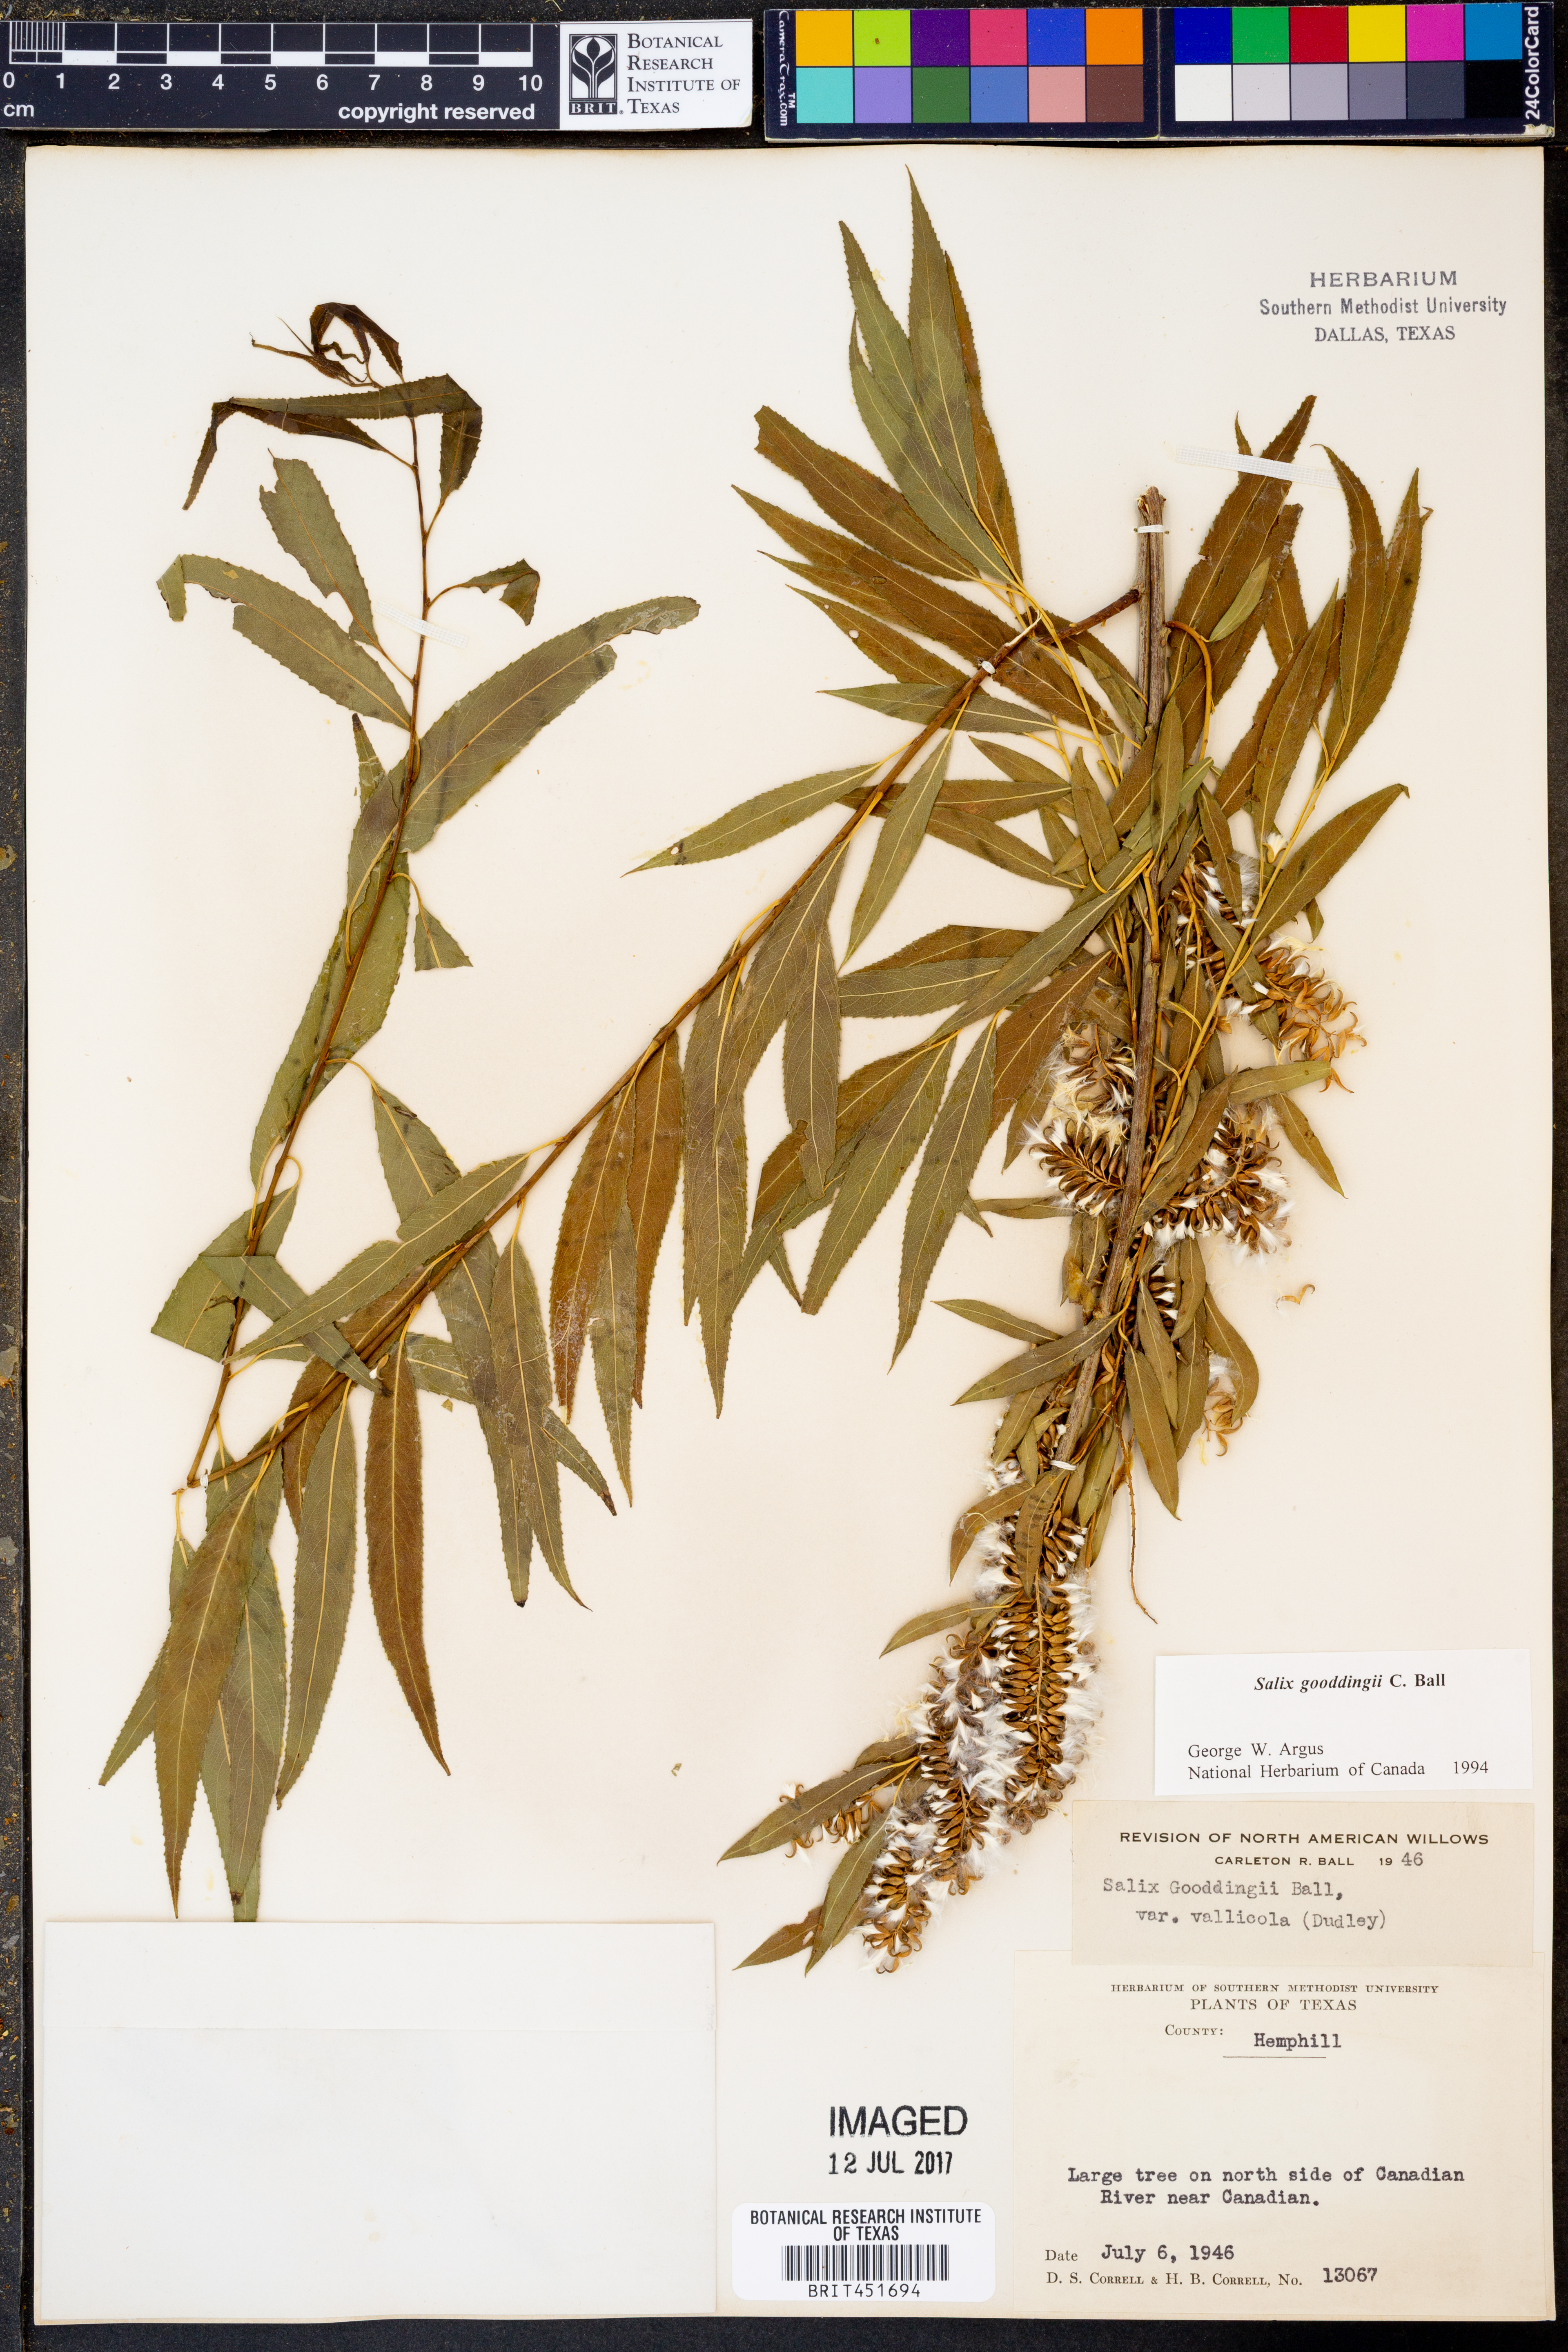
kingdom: Plantae
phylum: Tracheophyta
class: Magnoliopsida
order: Malpighiales
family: Salicaceae
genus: Salix
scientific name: Salix gooddingii
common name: Goodding's willow
